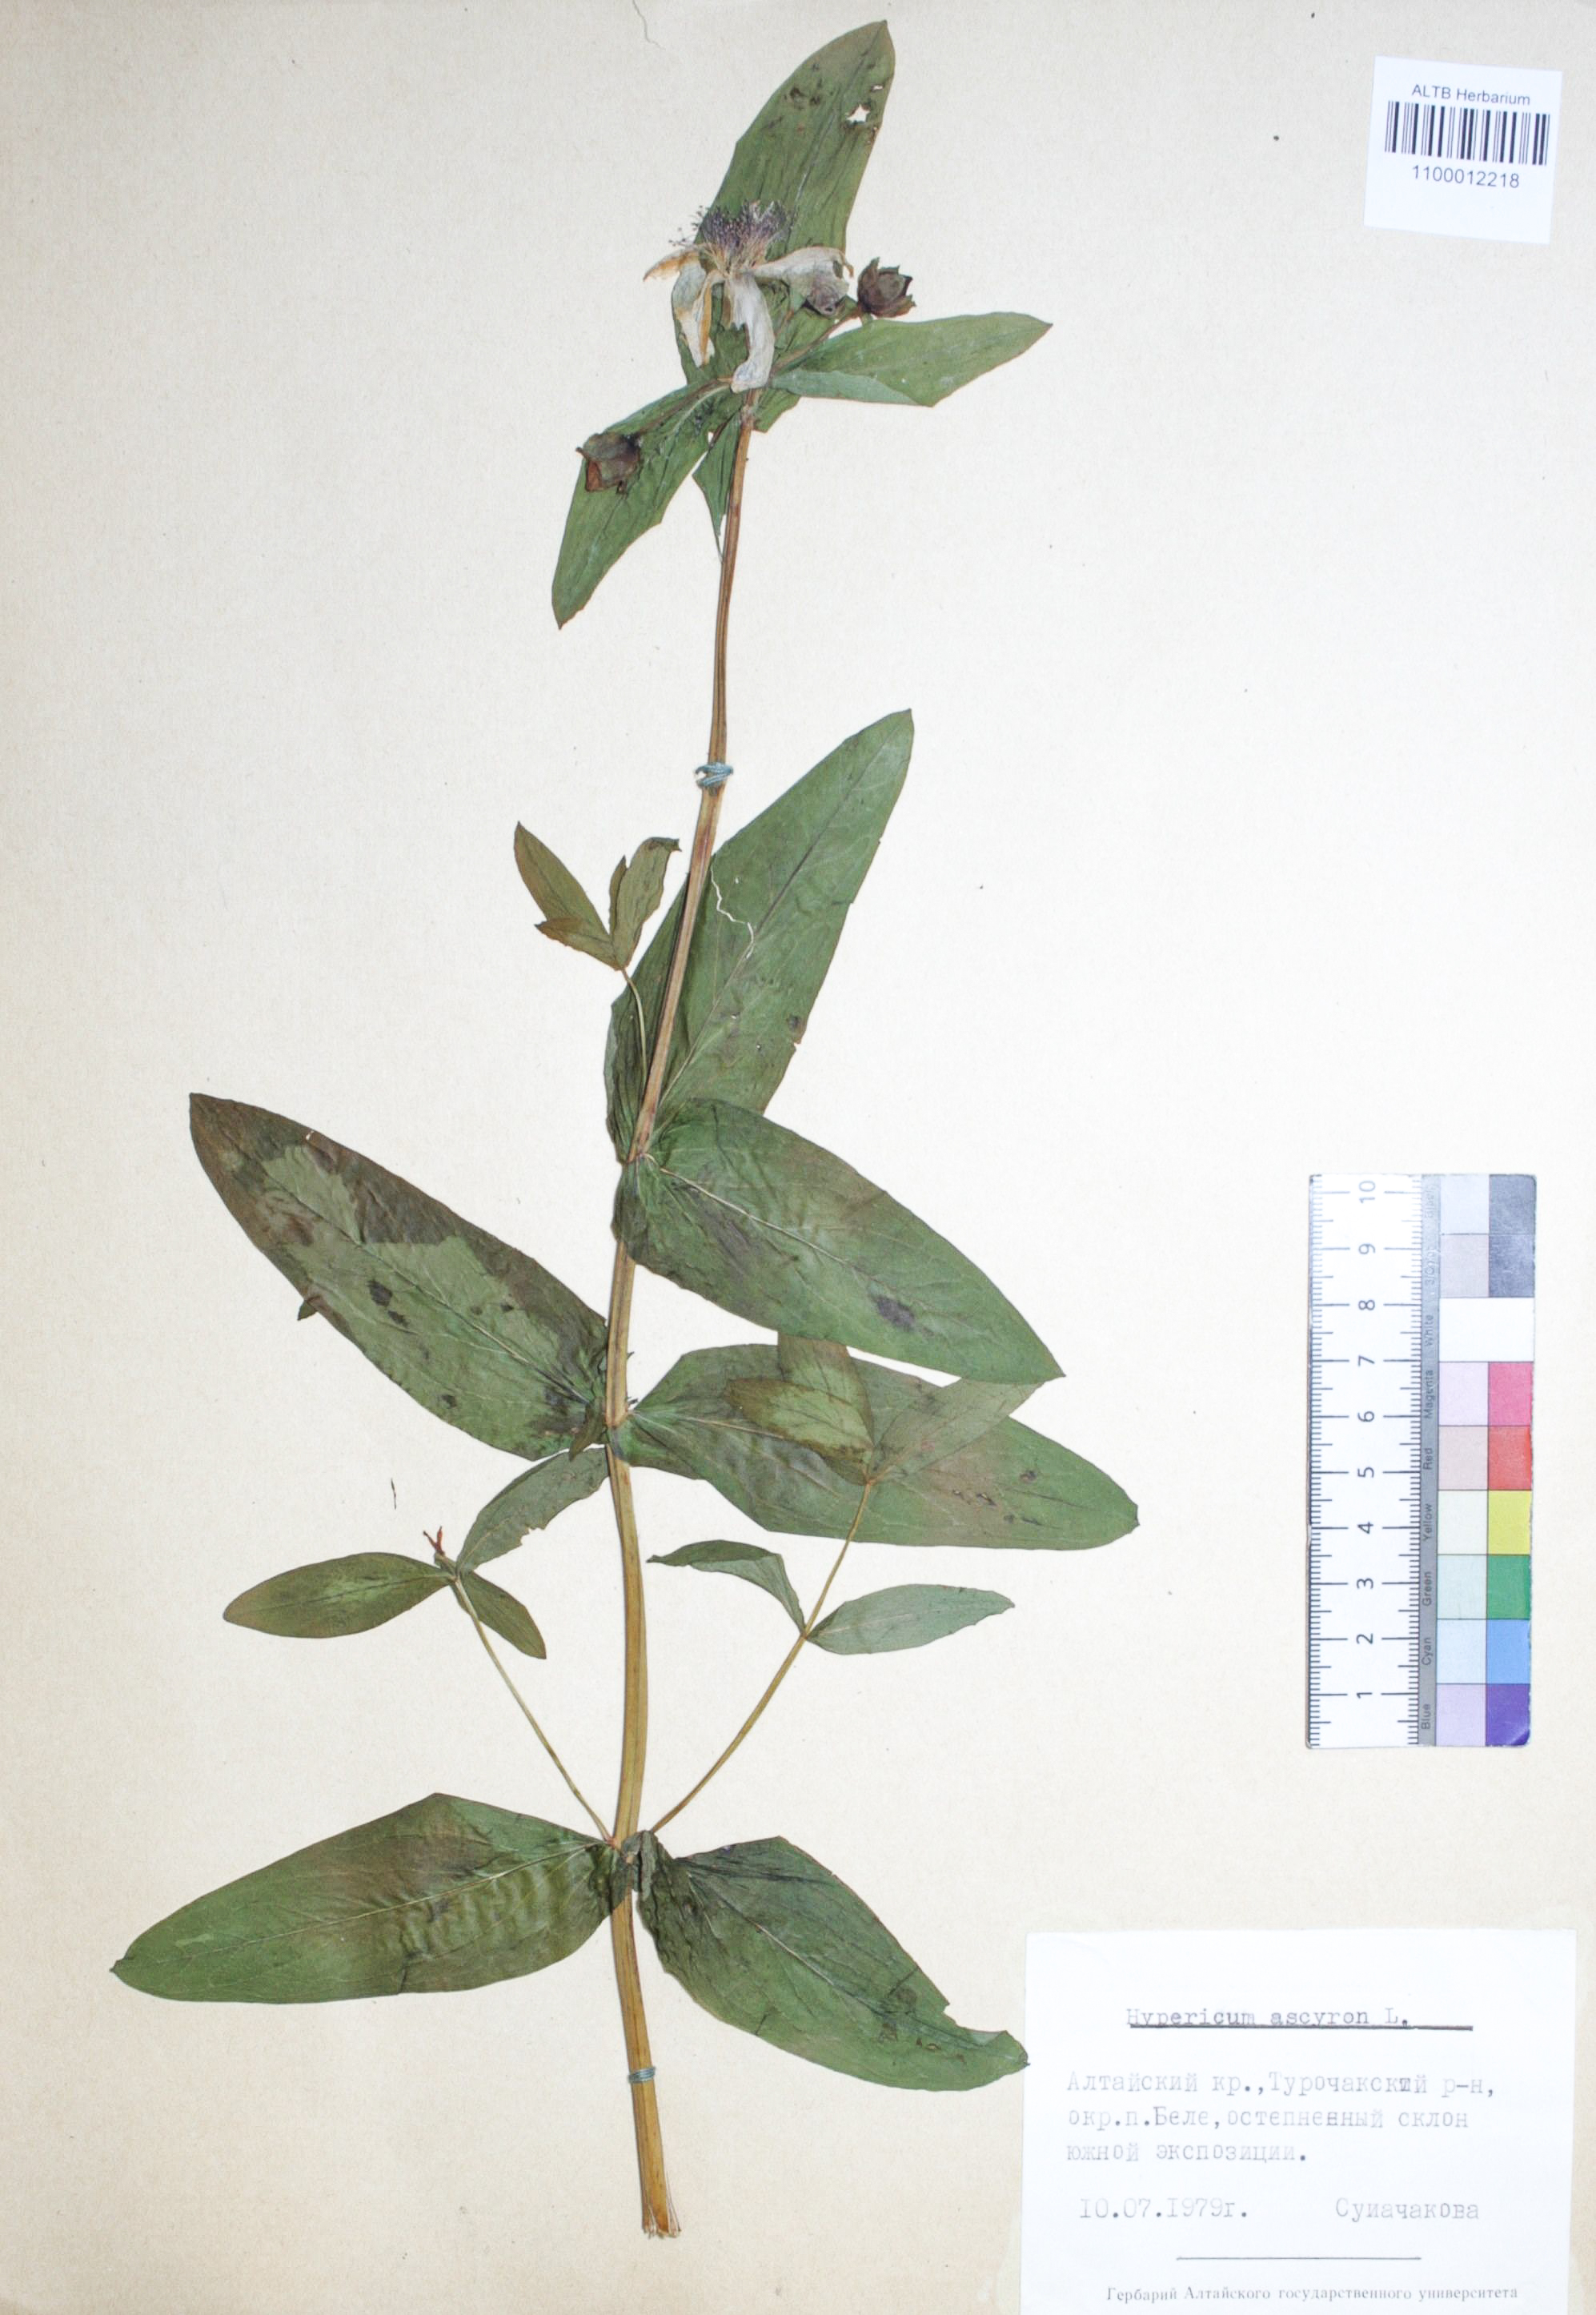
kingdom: Plantae
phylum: Tracheophyta
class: Magnoliopsida
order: Malpighiales
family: Hypericaceae
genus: Hypericum
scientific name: Hypericum ascyron
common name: Giant st. john's-wort
